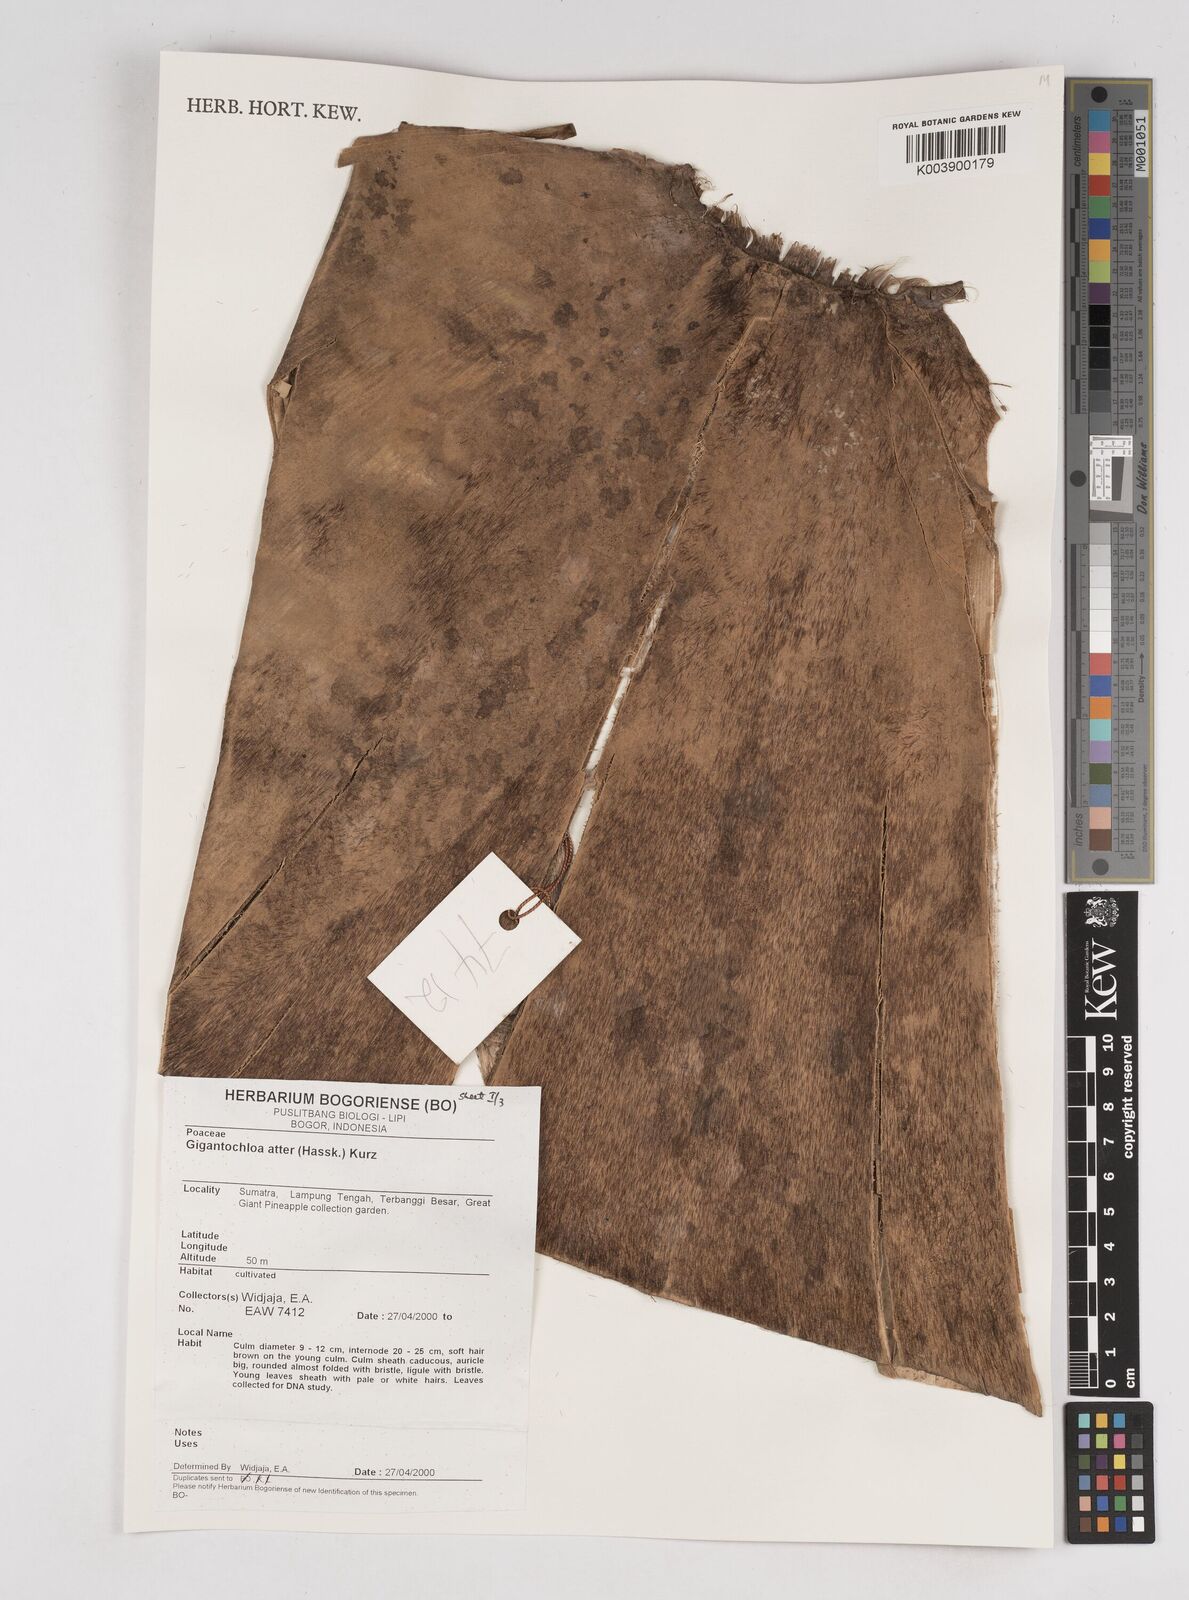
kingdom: Plantae
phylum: Tracheophyta
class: Liliopsida
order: Poales
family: Poaceae
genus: Gigantochloa
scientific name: Gigantochloa atter
